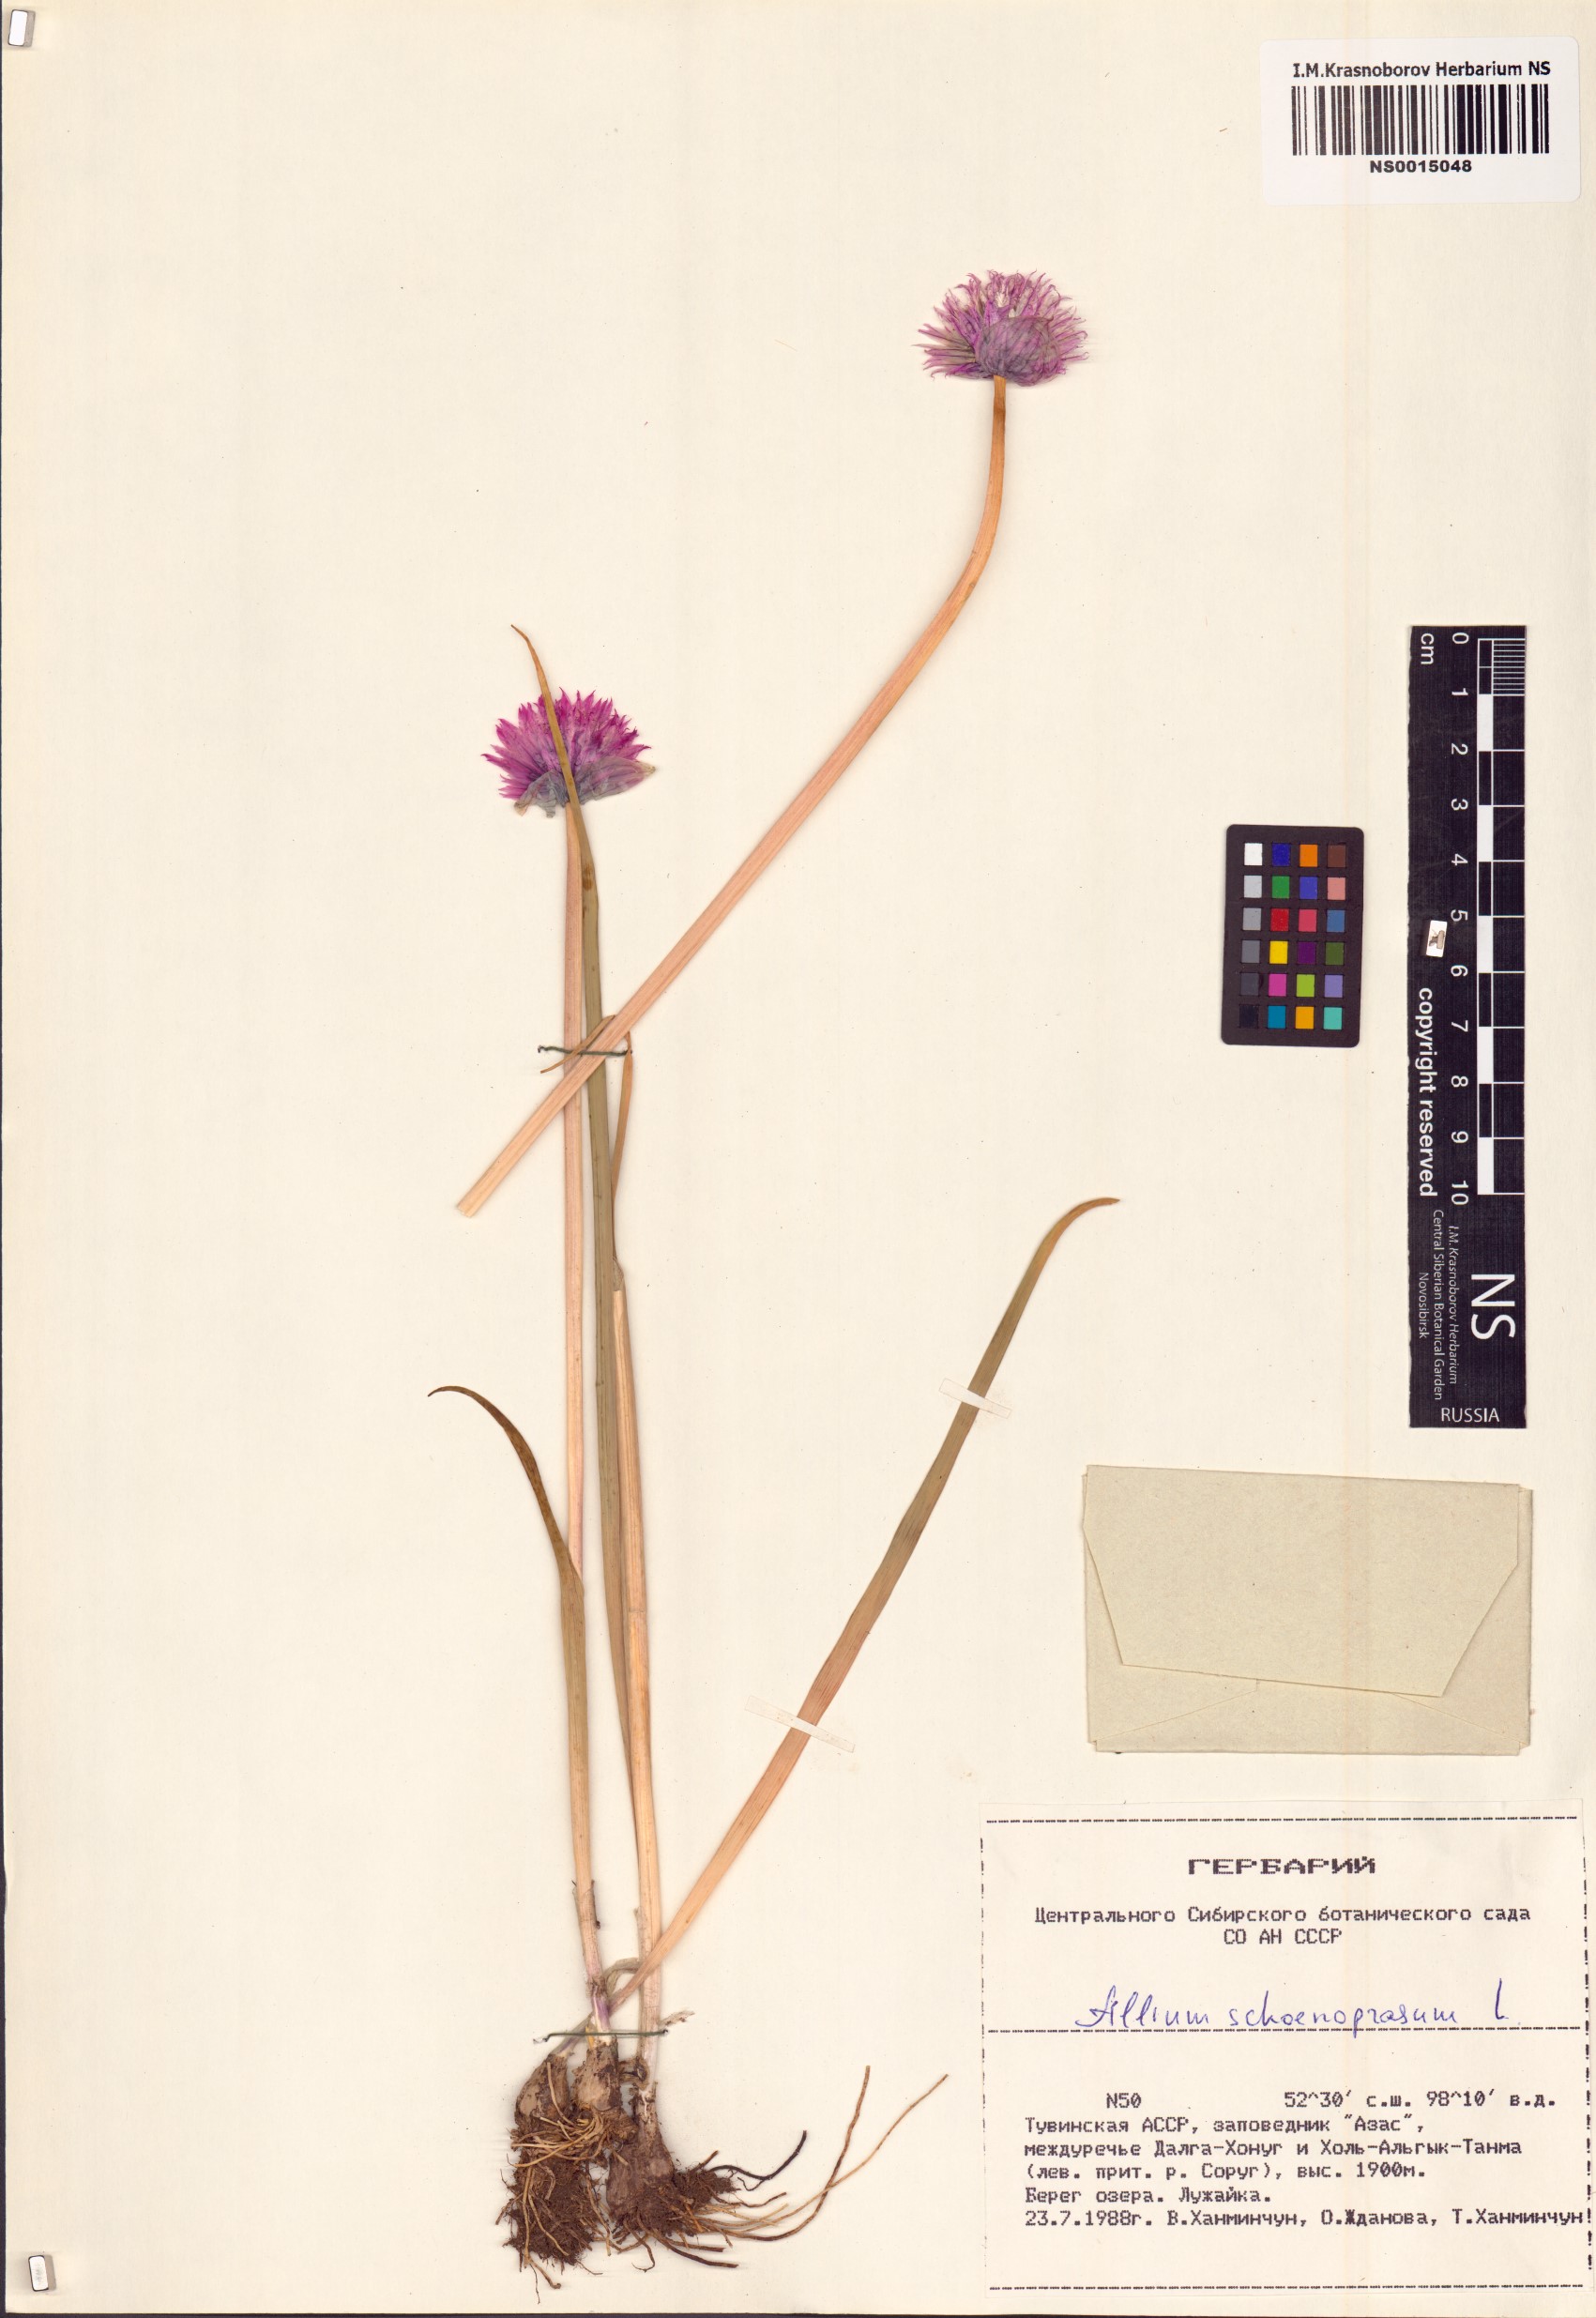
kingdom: Plantae
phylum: Tracheophyta
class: Liliopsida
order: Asparagales
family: Amaryllidaceae
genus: Allium
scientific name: Allium schoenoprasum
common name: Chives
